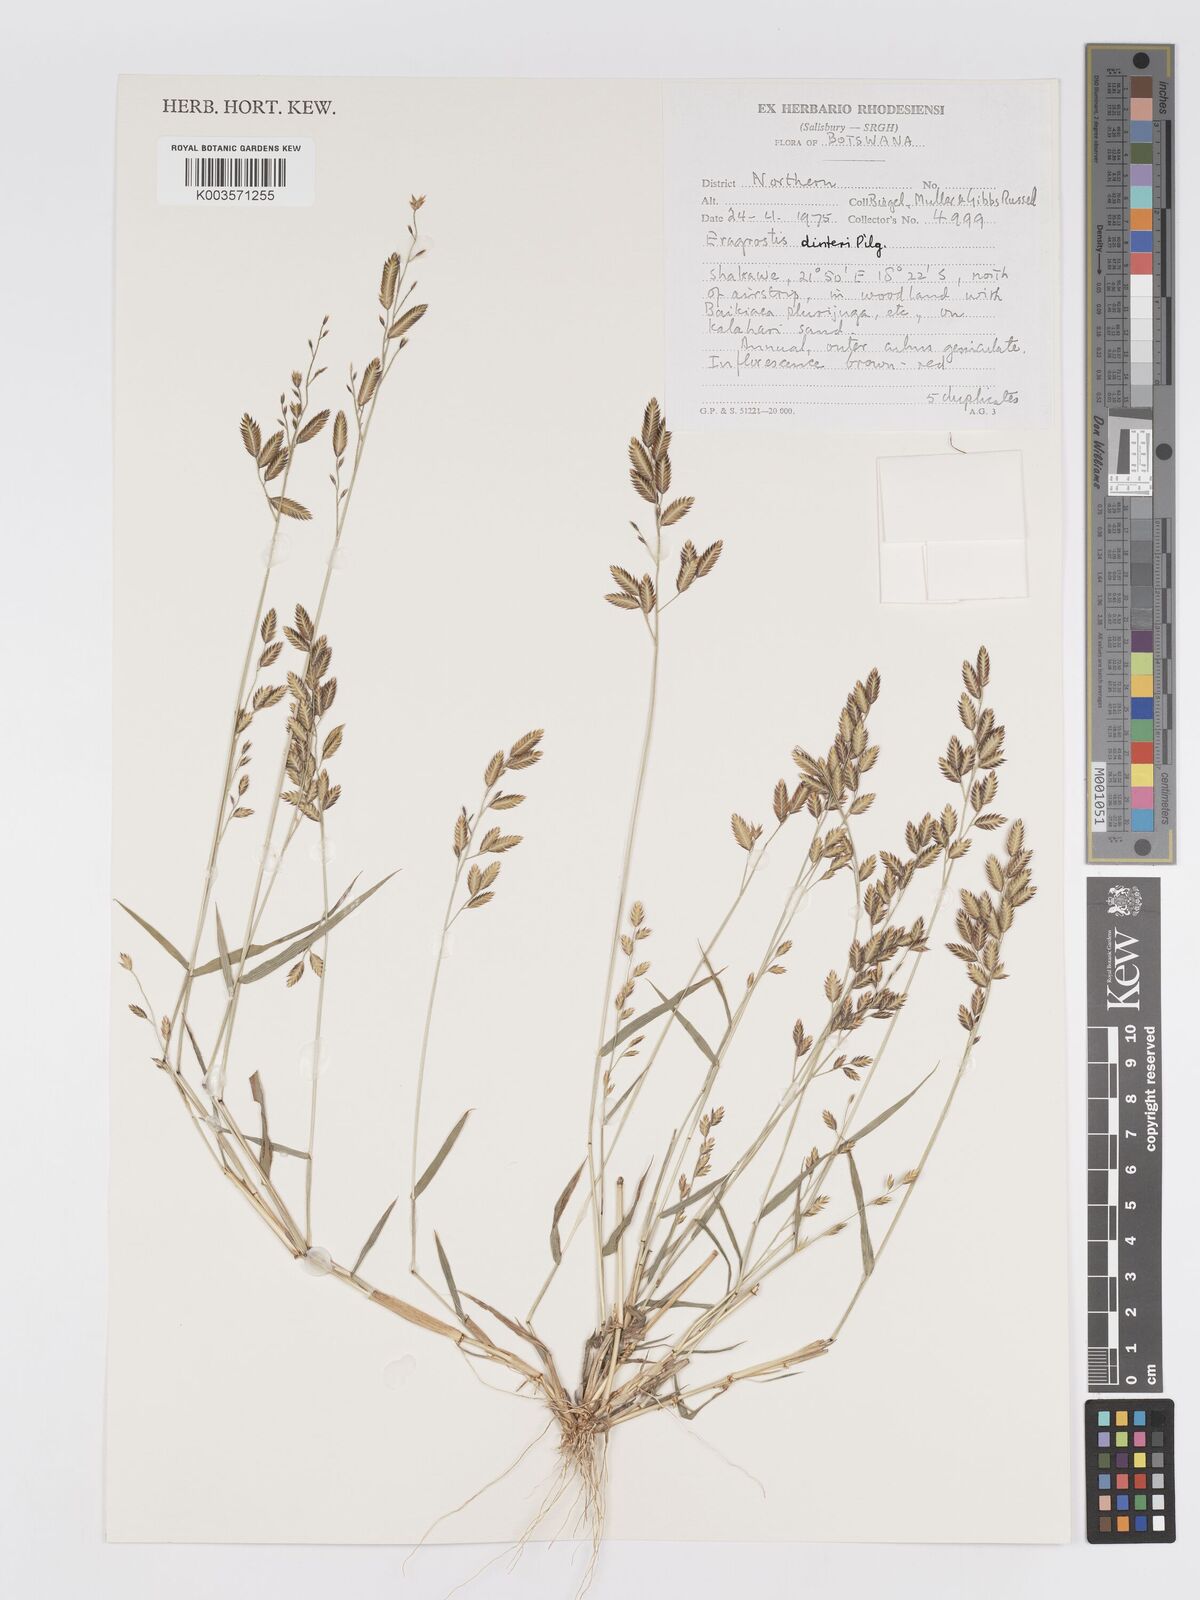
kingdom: Plantae
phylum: Tracheophyta
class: Liliopsida
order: Poales
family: Poaceae
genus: Eragrostis
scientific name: Eragrostis dinteri
